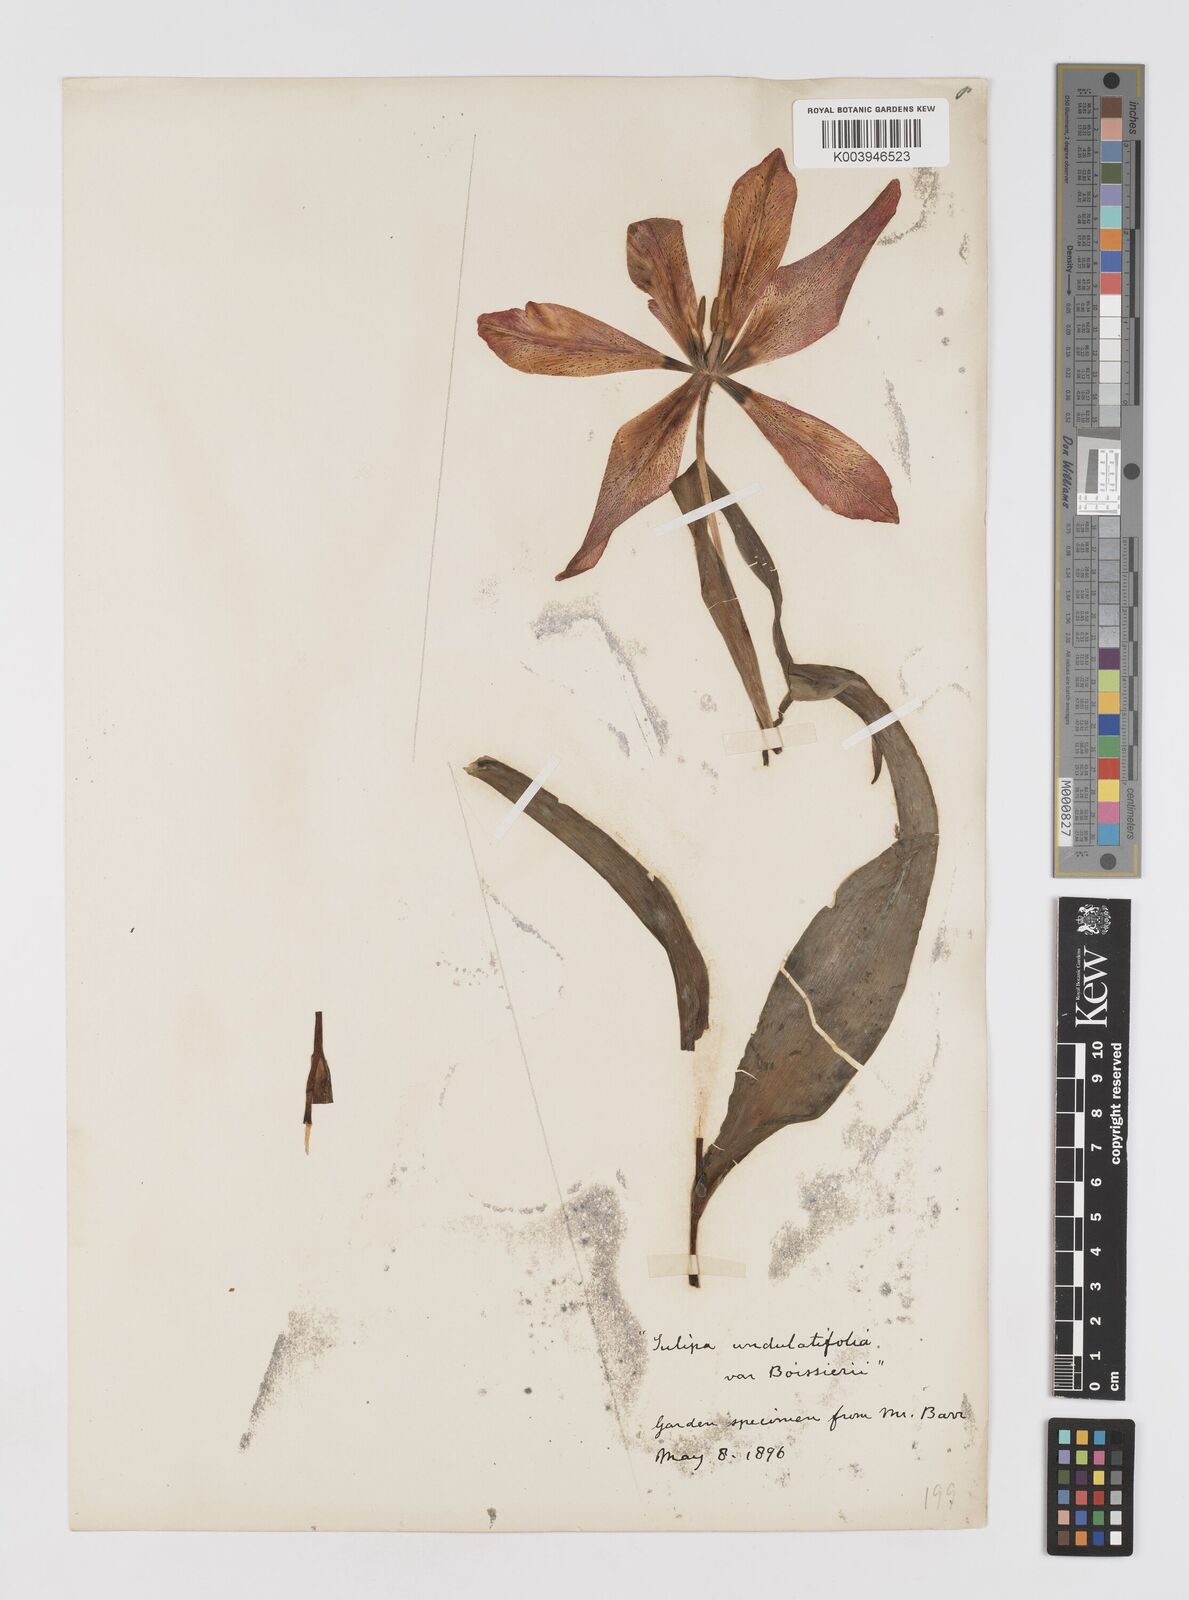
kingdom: Plantae
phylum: Tracheophyta
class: Liliopsida
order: Liliales
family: Liliaceae
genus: Tulipa
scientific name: Tulipa
